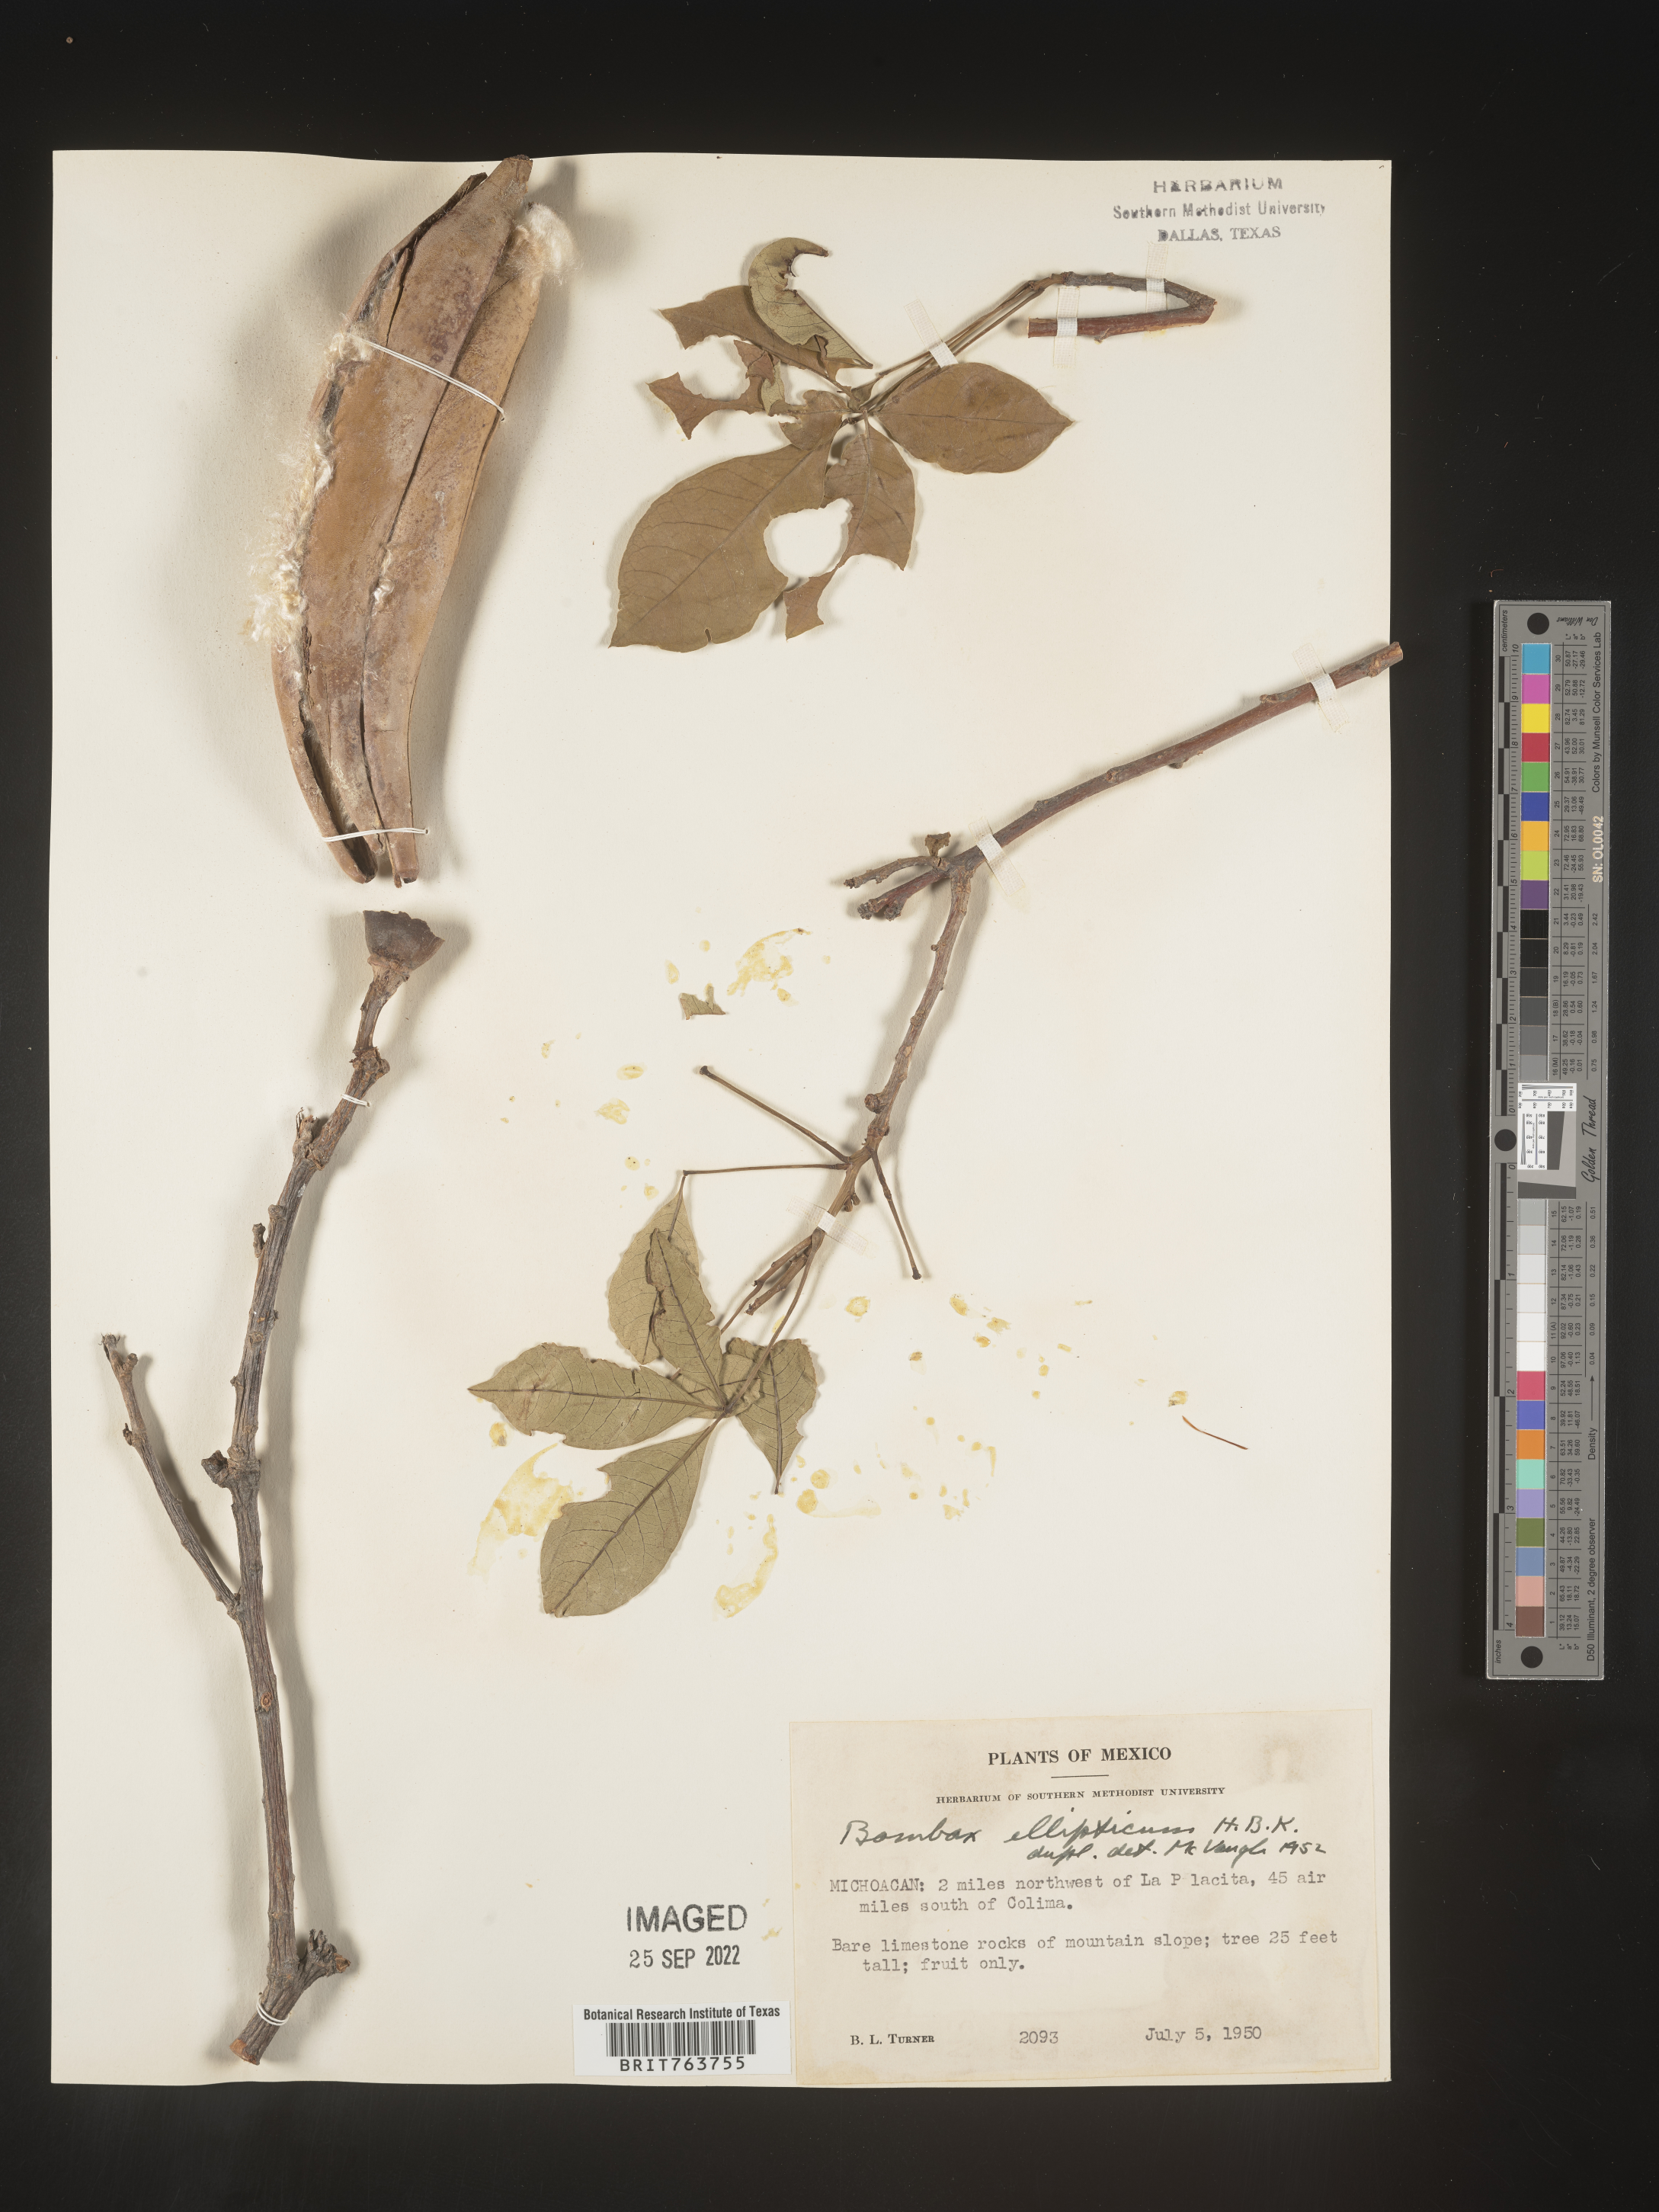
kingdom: Plantae
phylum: Tracheophyta
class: Magnoliopsida
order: Malvales
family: Malvaceae
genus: Bombax
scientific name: Bombax
